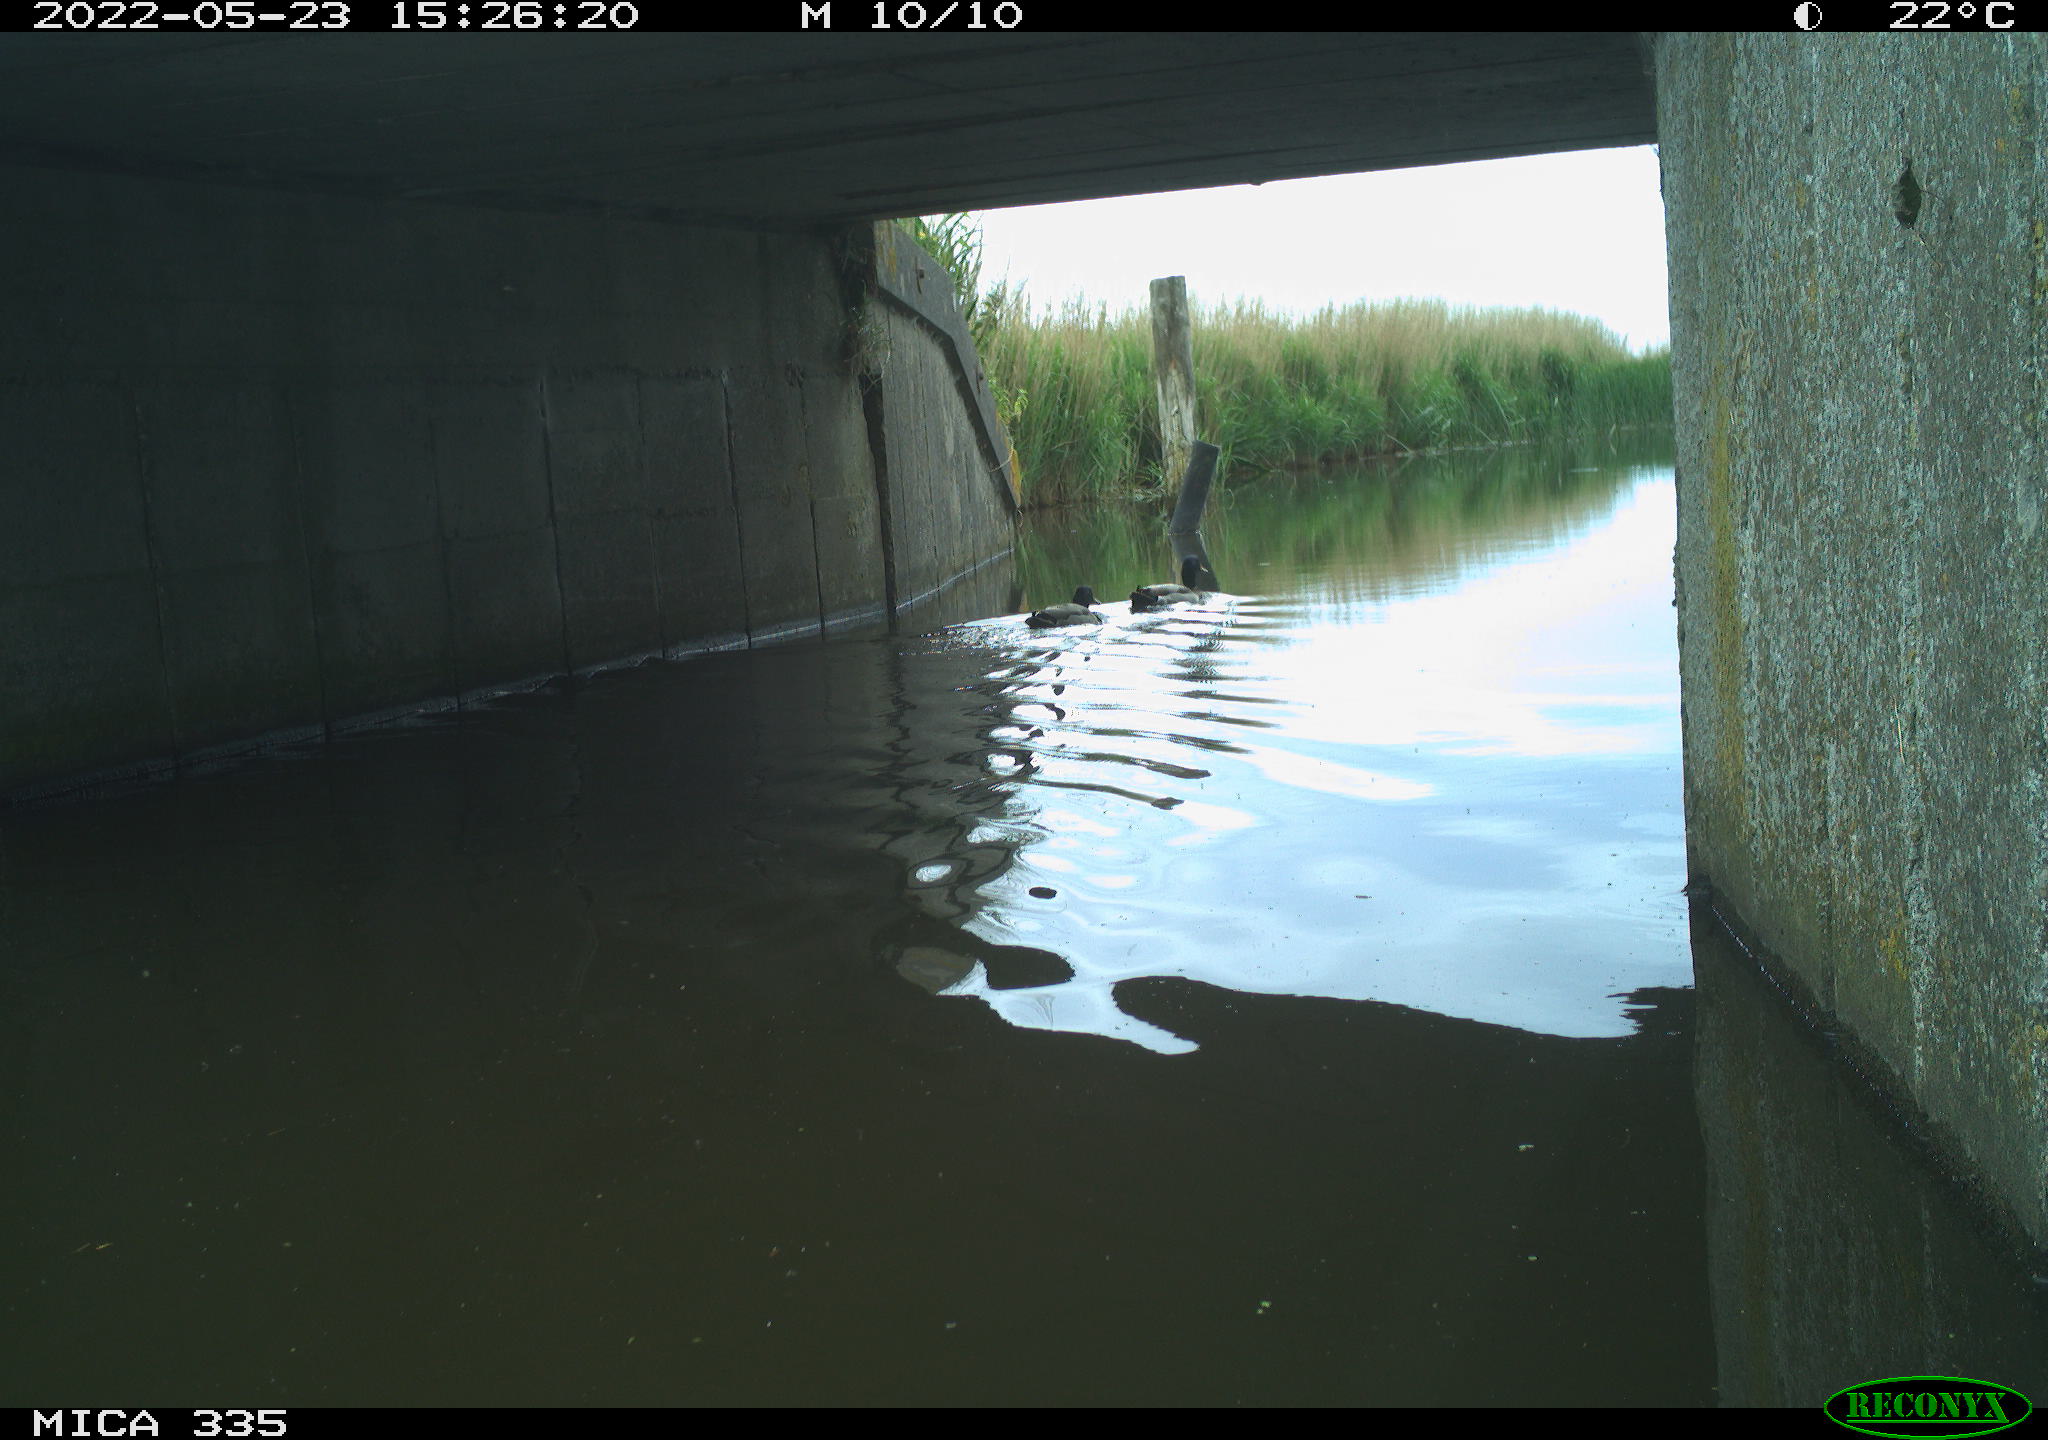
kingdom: Animalia
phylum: Chordata
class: Aves
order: Anseriformes
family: Anatidae
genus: Anas
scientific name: Anas platyrhynchos
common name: Mallard
